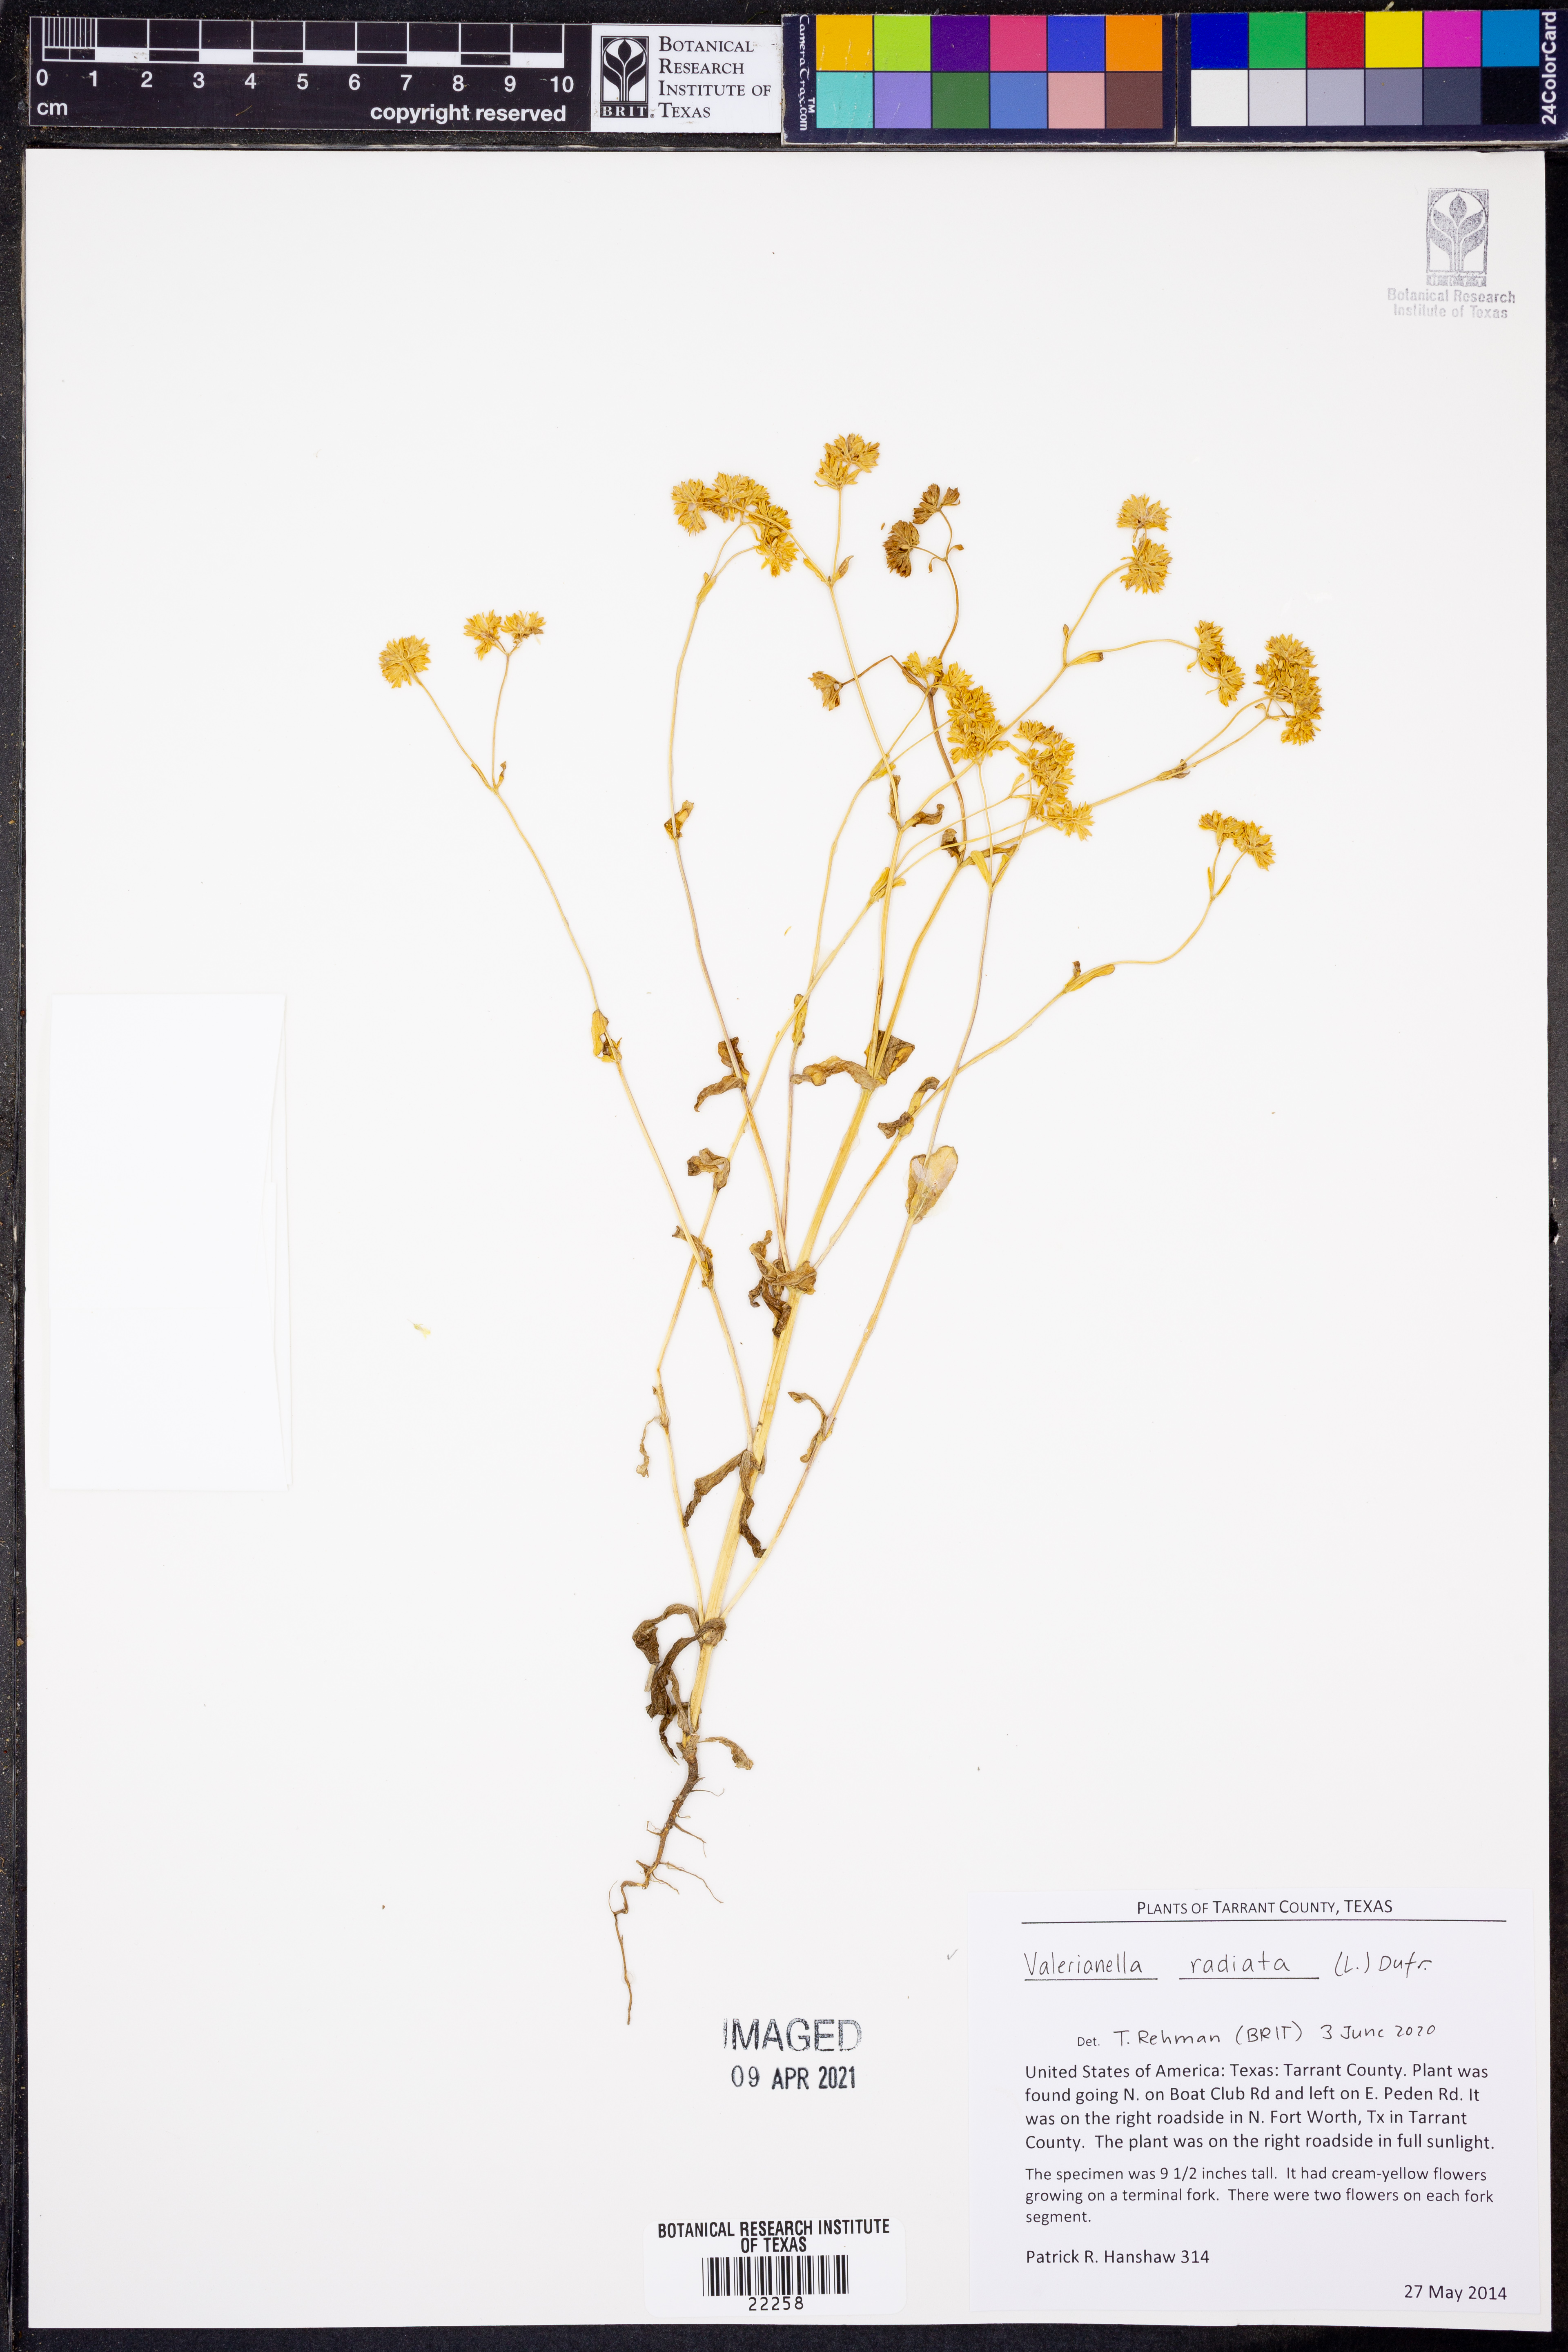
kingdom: Plantae
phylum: Tracheophyta
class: Magnoliopsida
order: Dipsacales
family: Caprifoliaceae
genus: Valerianella
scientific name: Valerianella radiata
